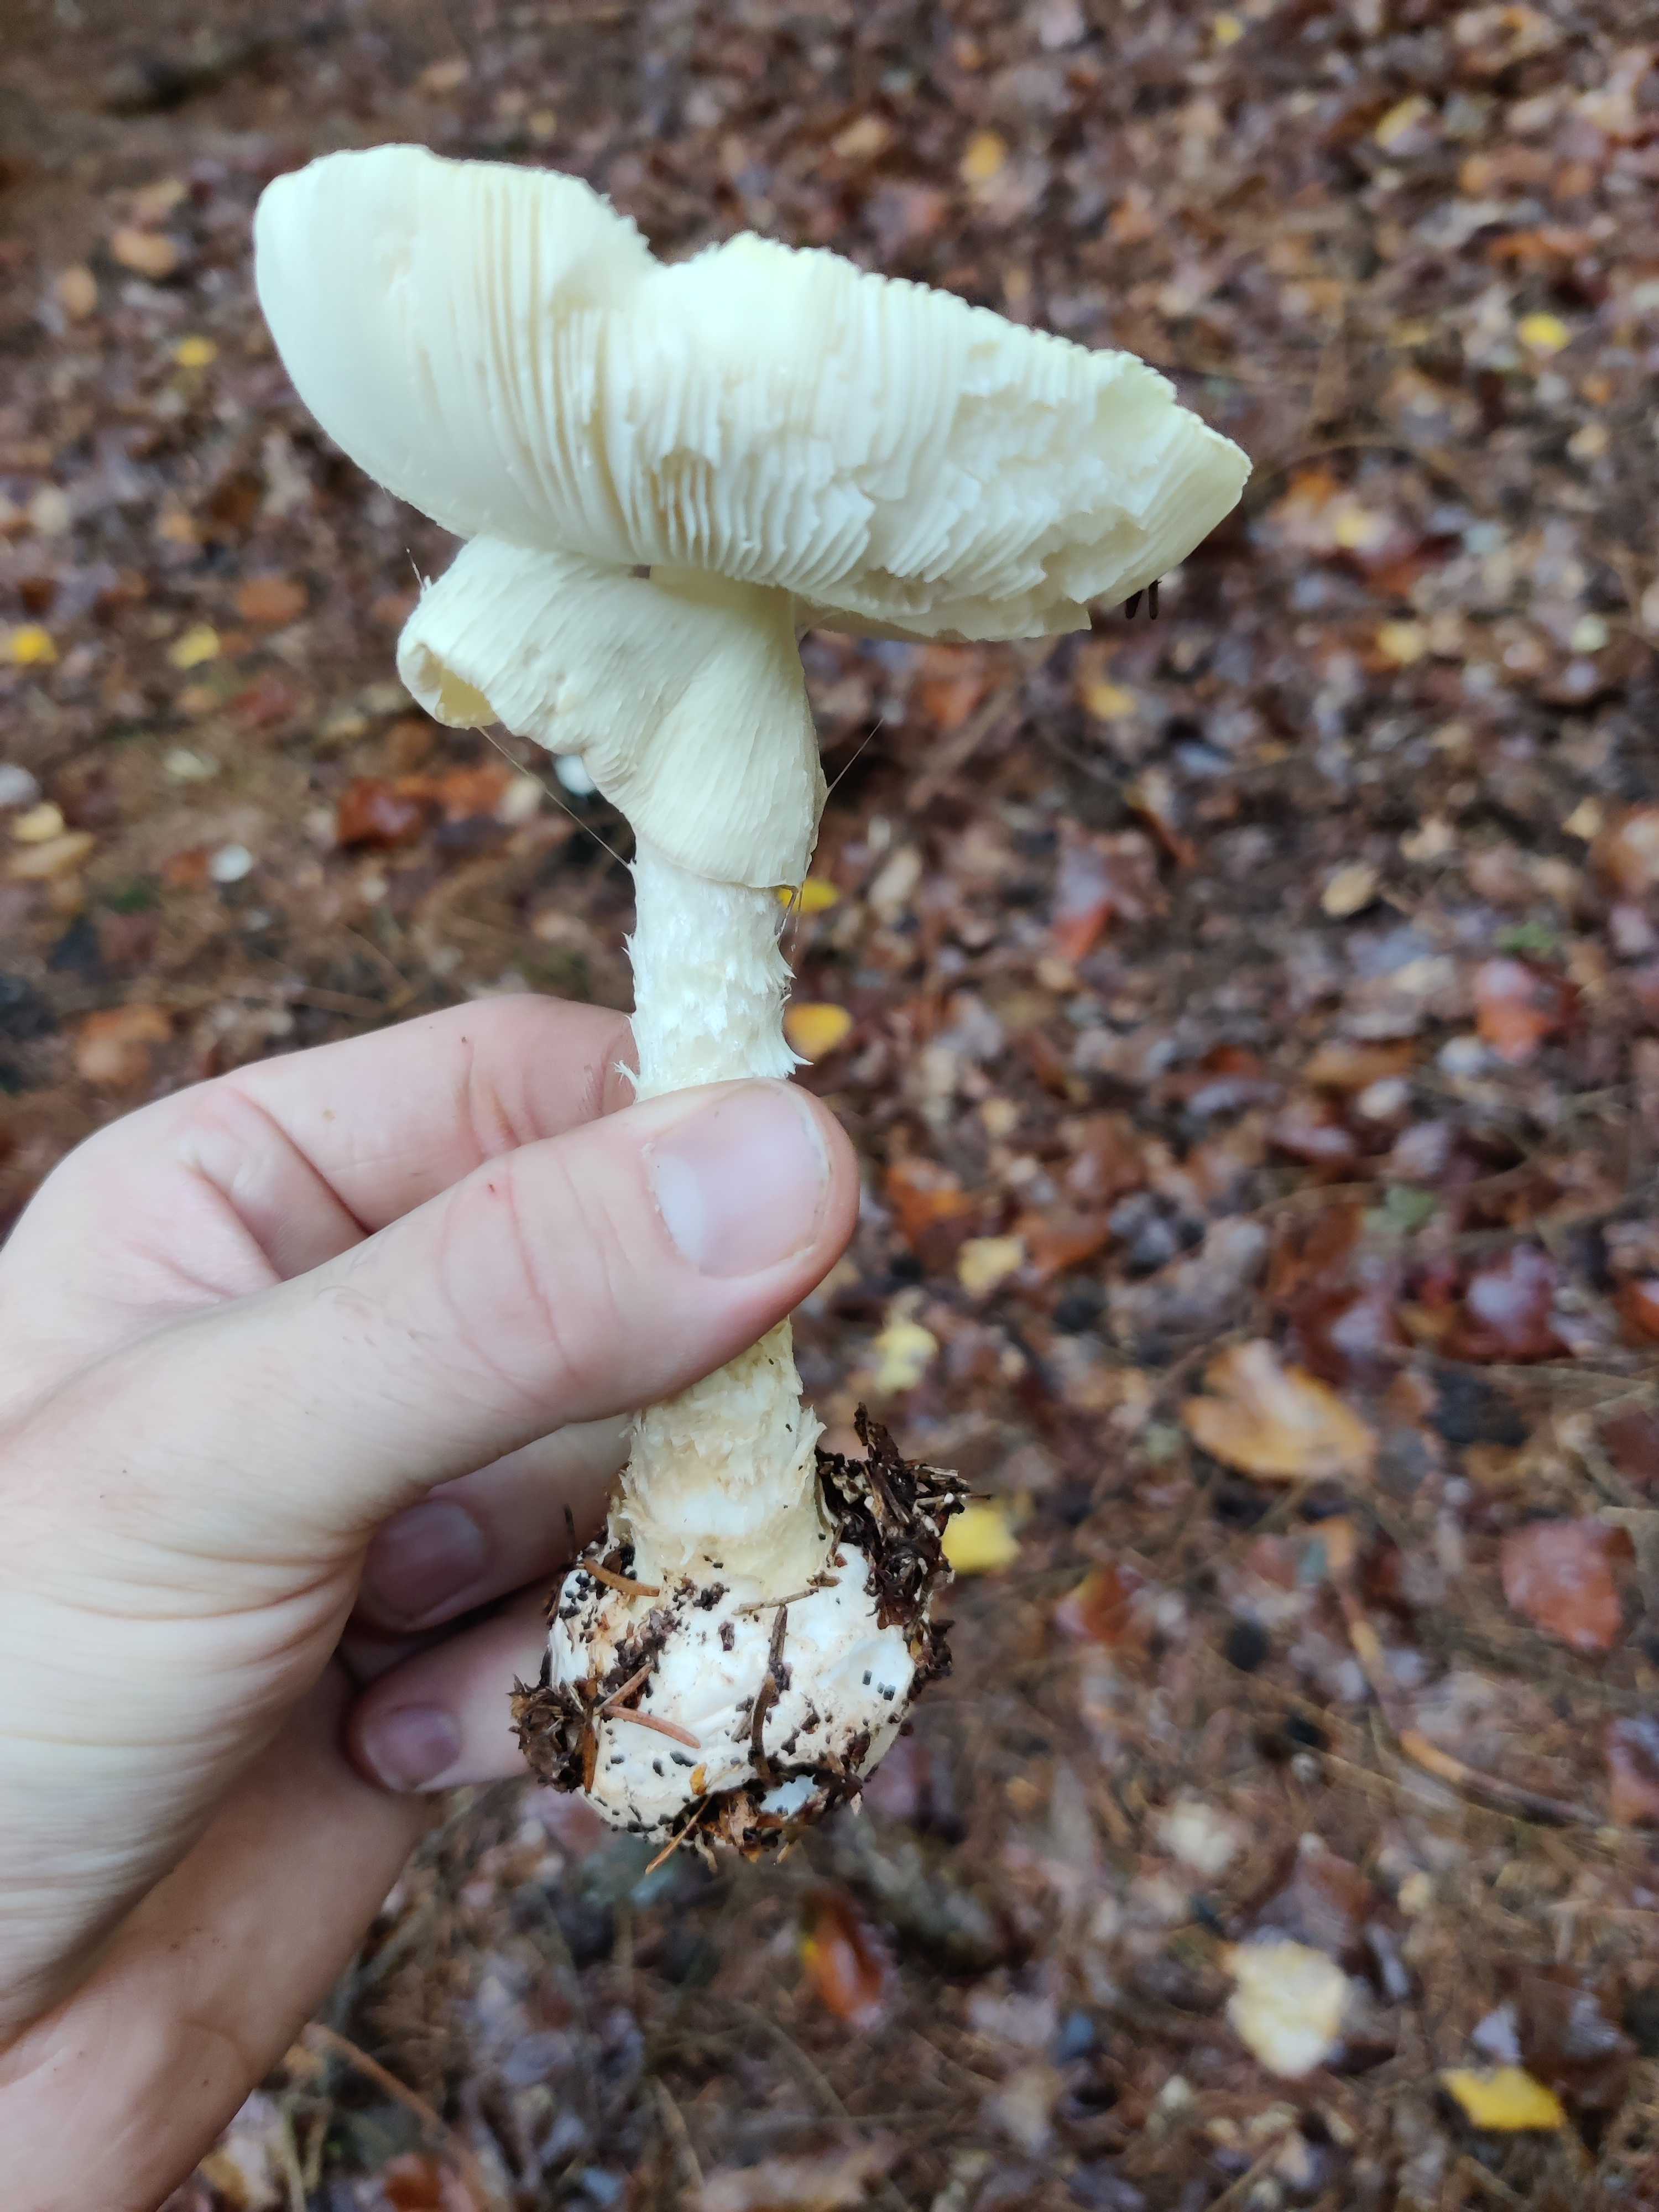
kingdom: Fungi
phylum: Basidiomycota
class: Agaricomycetes
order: Agaricales
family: Amanitaceae
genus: Amanita
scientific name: Amanita citrina
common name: kugleknoldet fluesvamp
